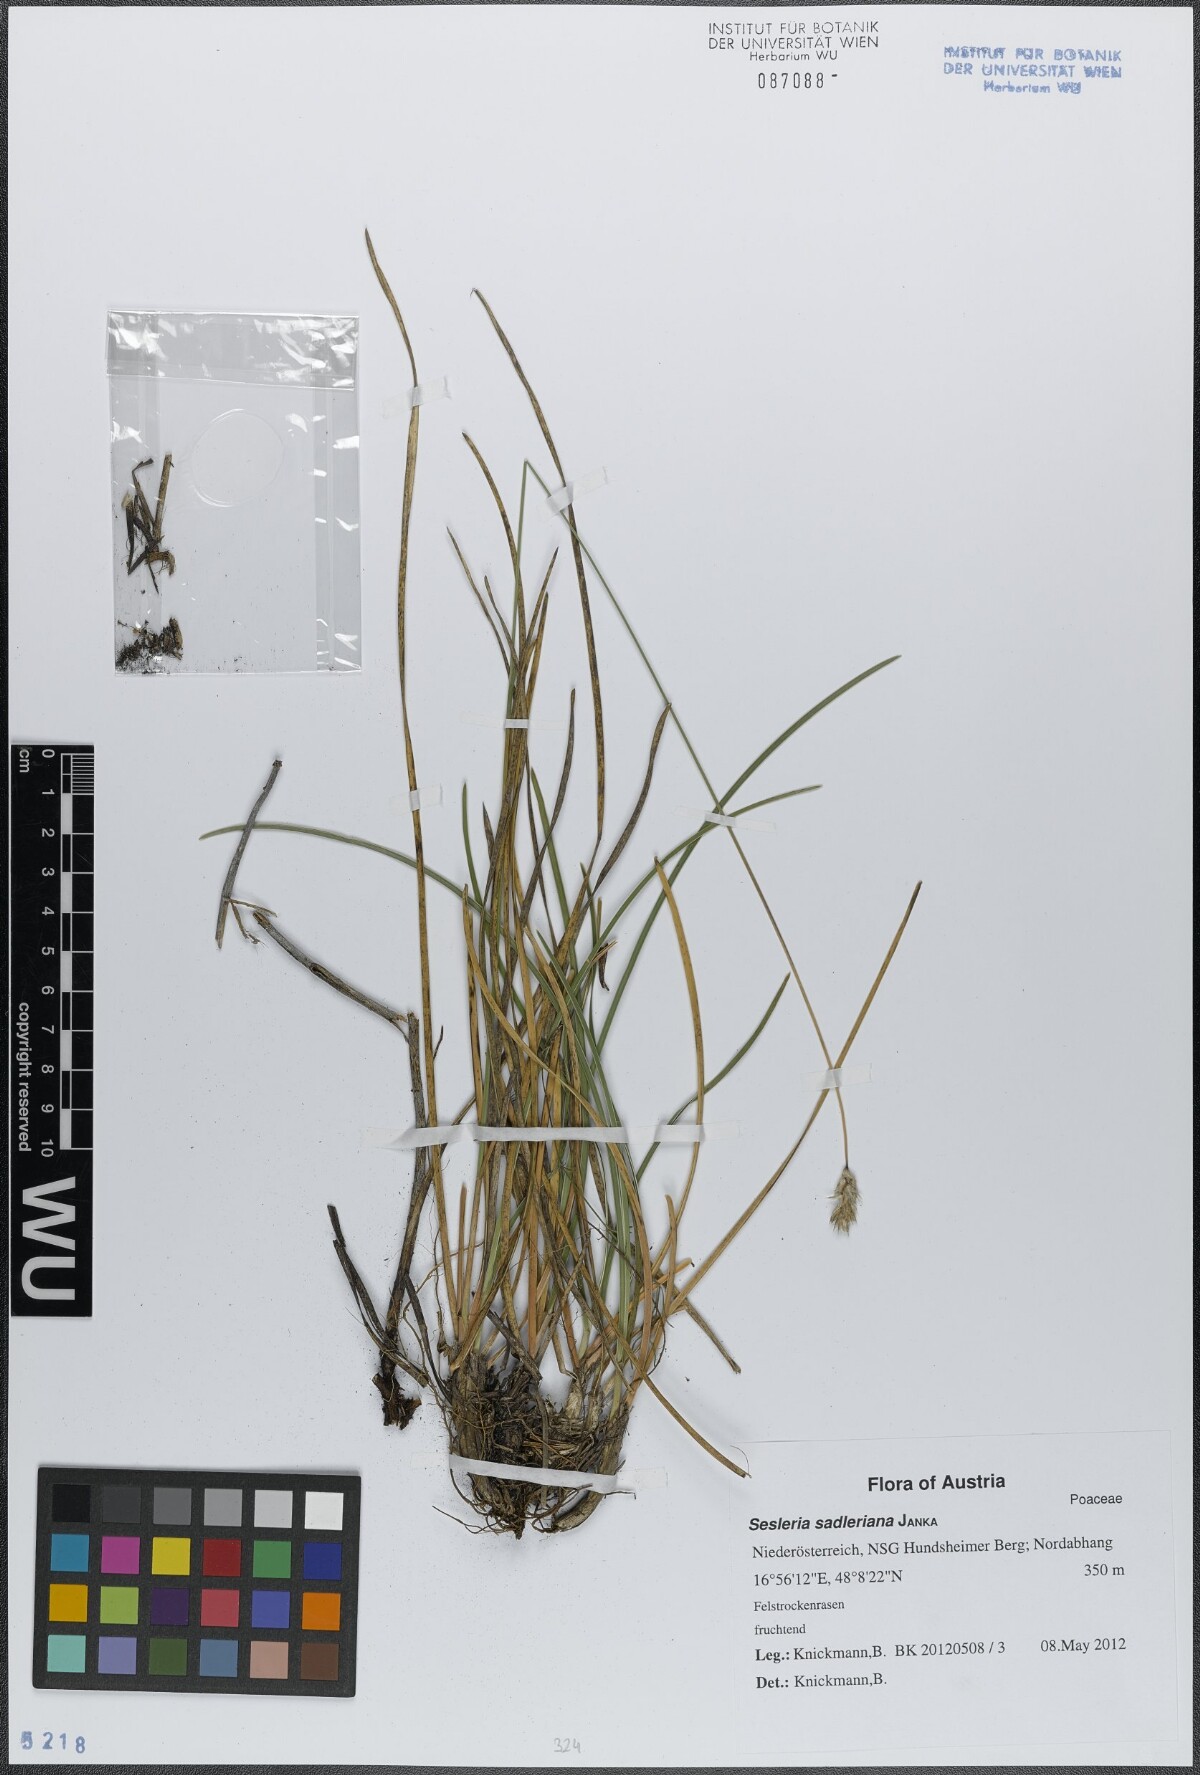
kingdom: Plantae
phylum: Tracheophyta
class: Liliopsida
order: Poales
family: Poaceae
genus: Sesleria
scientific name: Sesleria sadleriana
